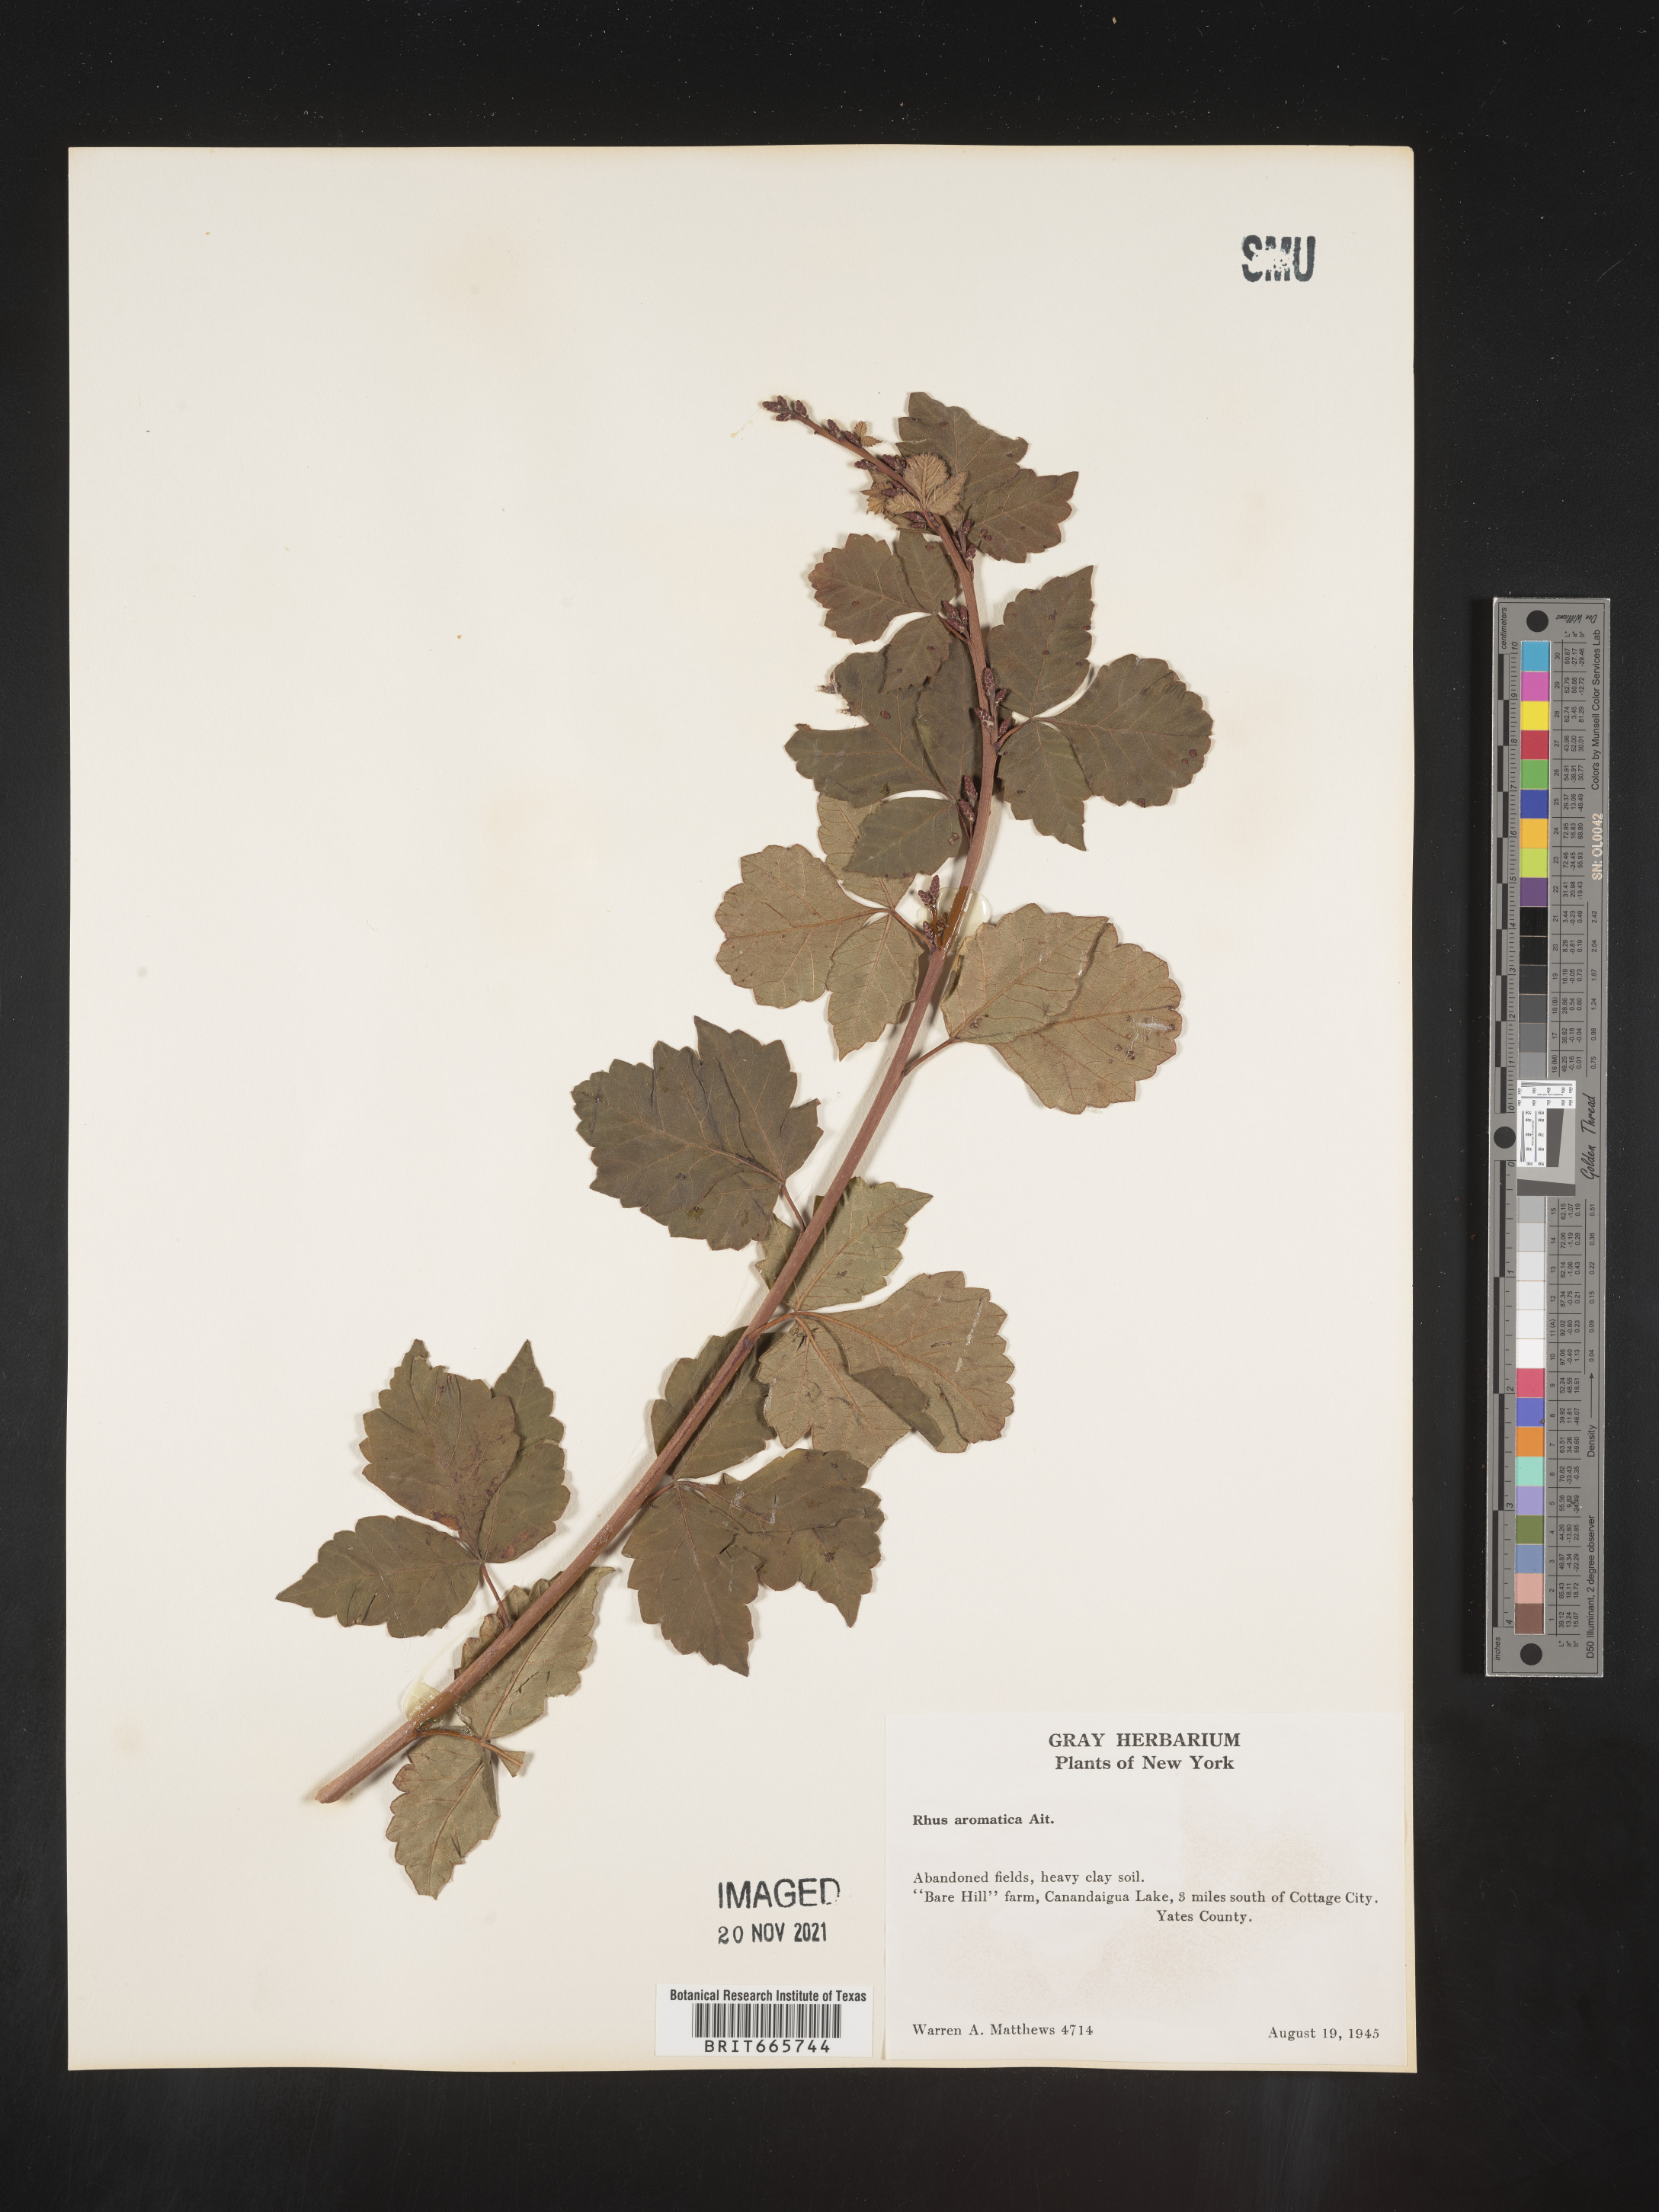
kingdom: Plantae
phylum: Tracheophyta
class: Magnoliopsida
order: Sapindales
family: Anacardiaceae
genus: Rhus
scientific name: Rhus aromatica
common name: Aromatic sumac
